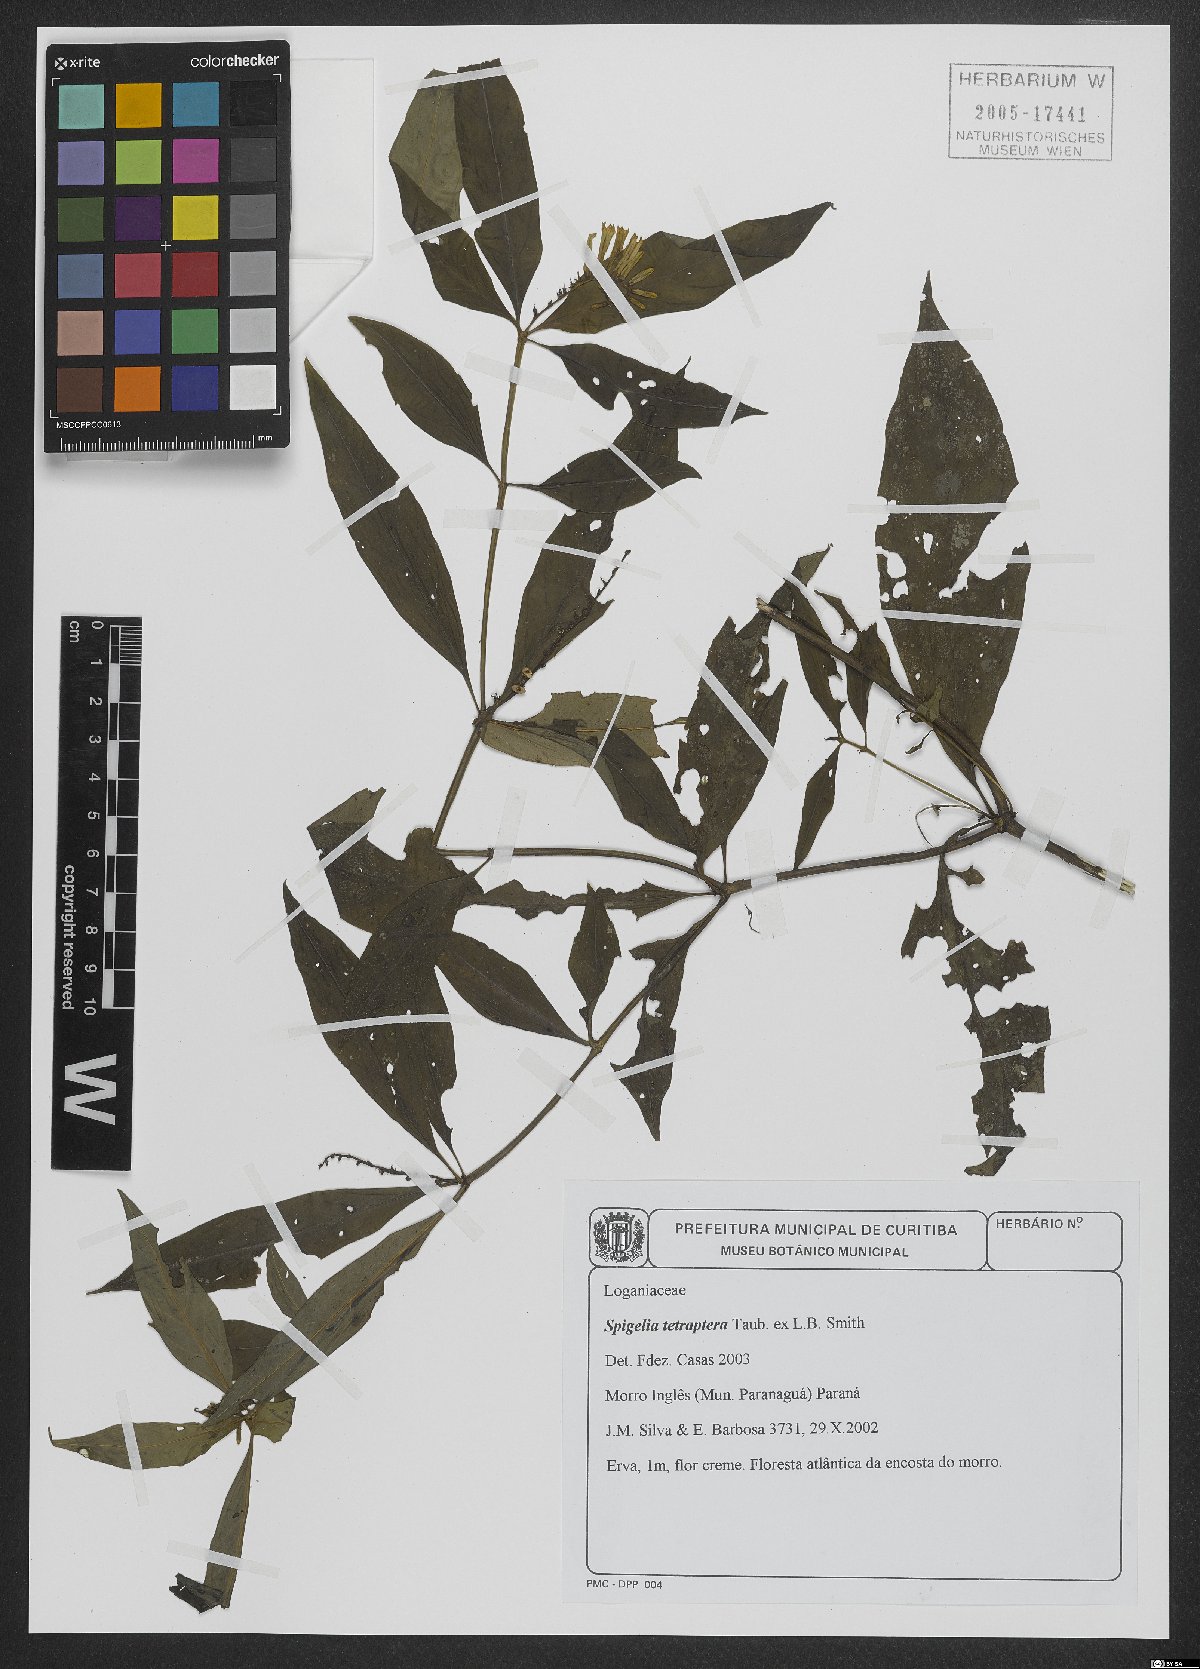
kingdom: Plantae
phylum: Tracheophyta
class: Magnoliopsida
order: Gentianales
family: Loganiaceae
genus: Spigelia
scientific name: Spigelia tetraptera
